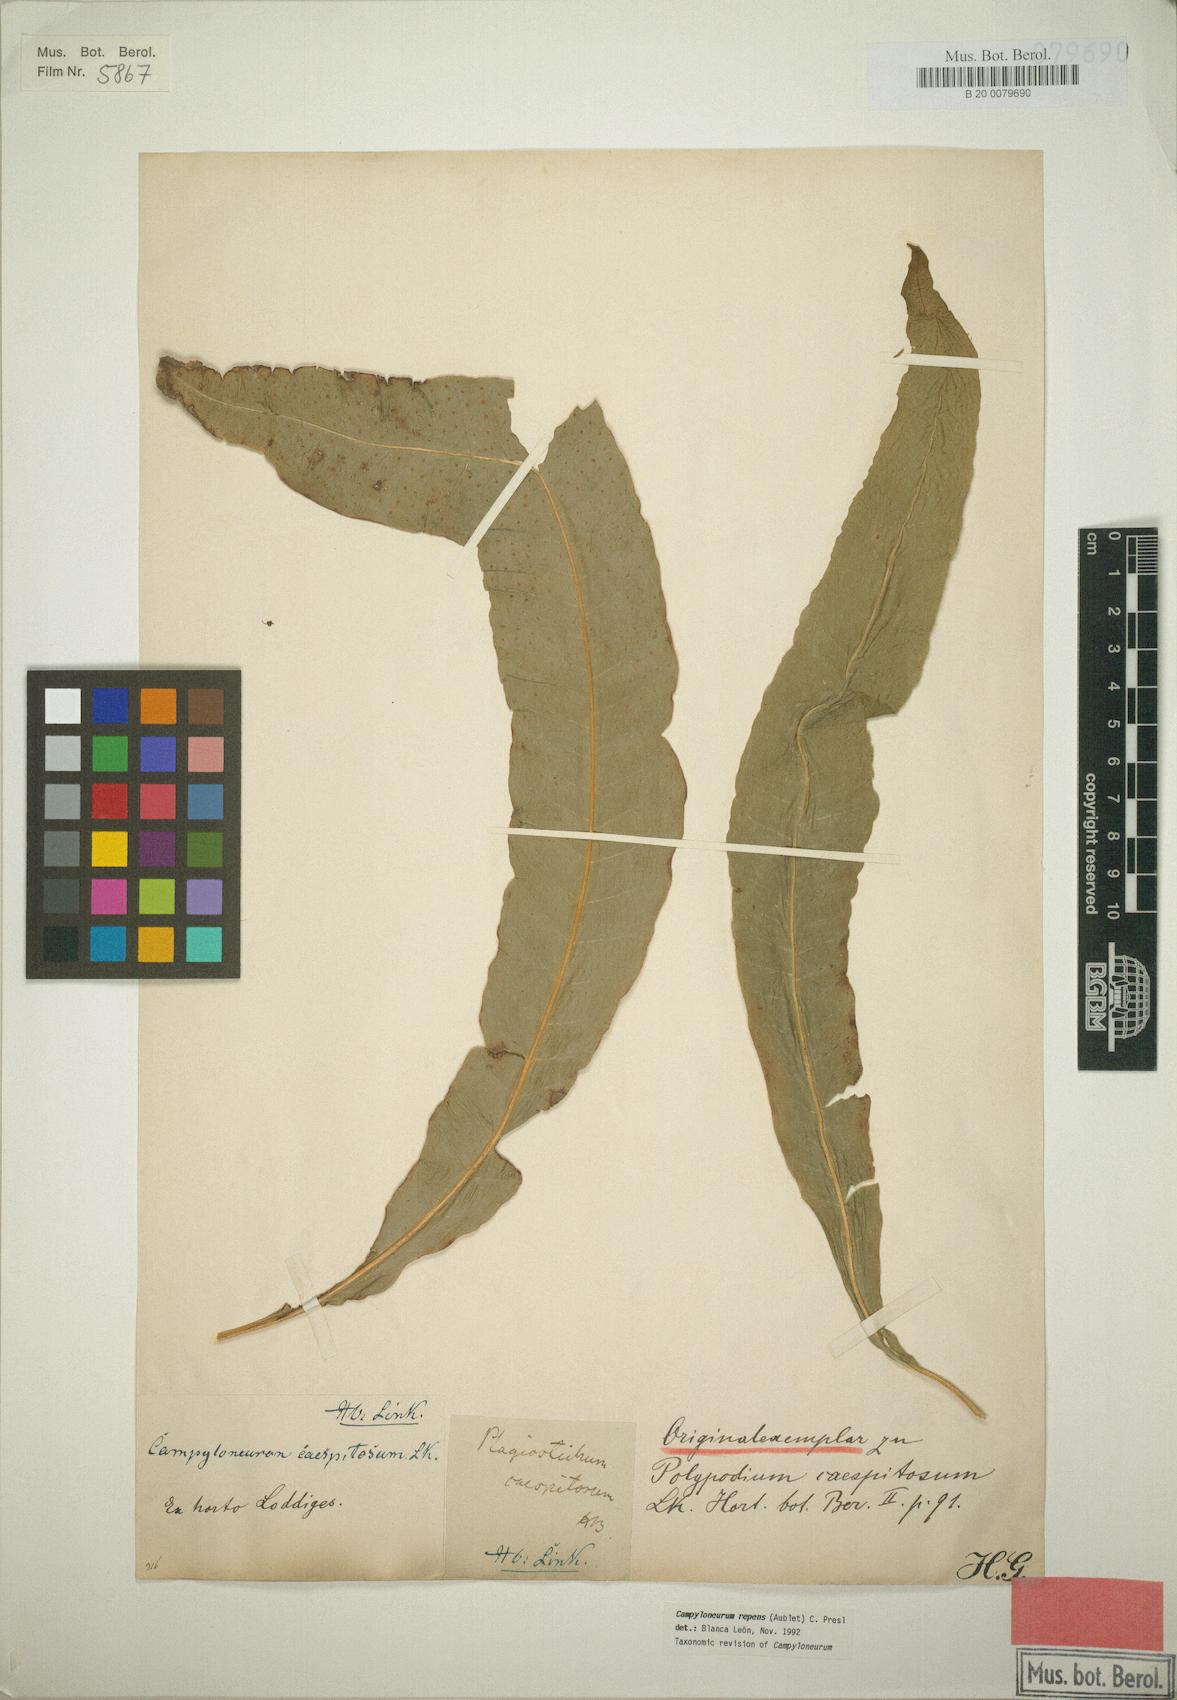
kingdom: Plantae
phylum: Tracheophyta
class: Polypodiopsida
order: Polypodiales
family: Polypodiaceae
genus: Campyloneurum
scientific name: Campyloneurum repens
